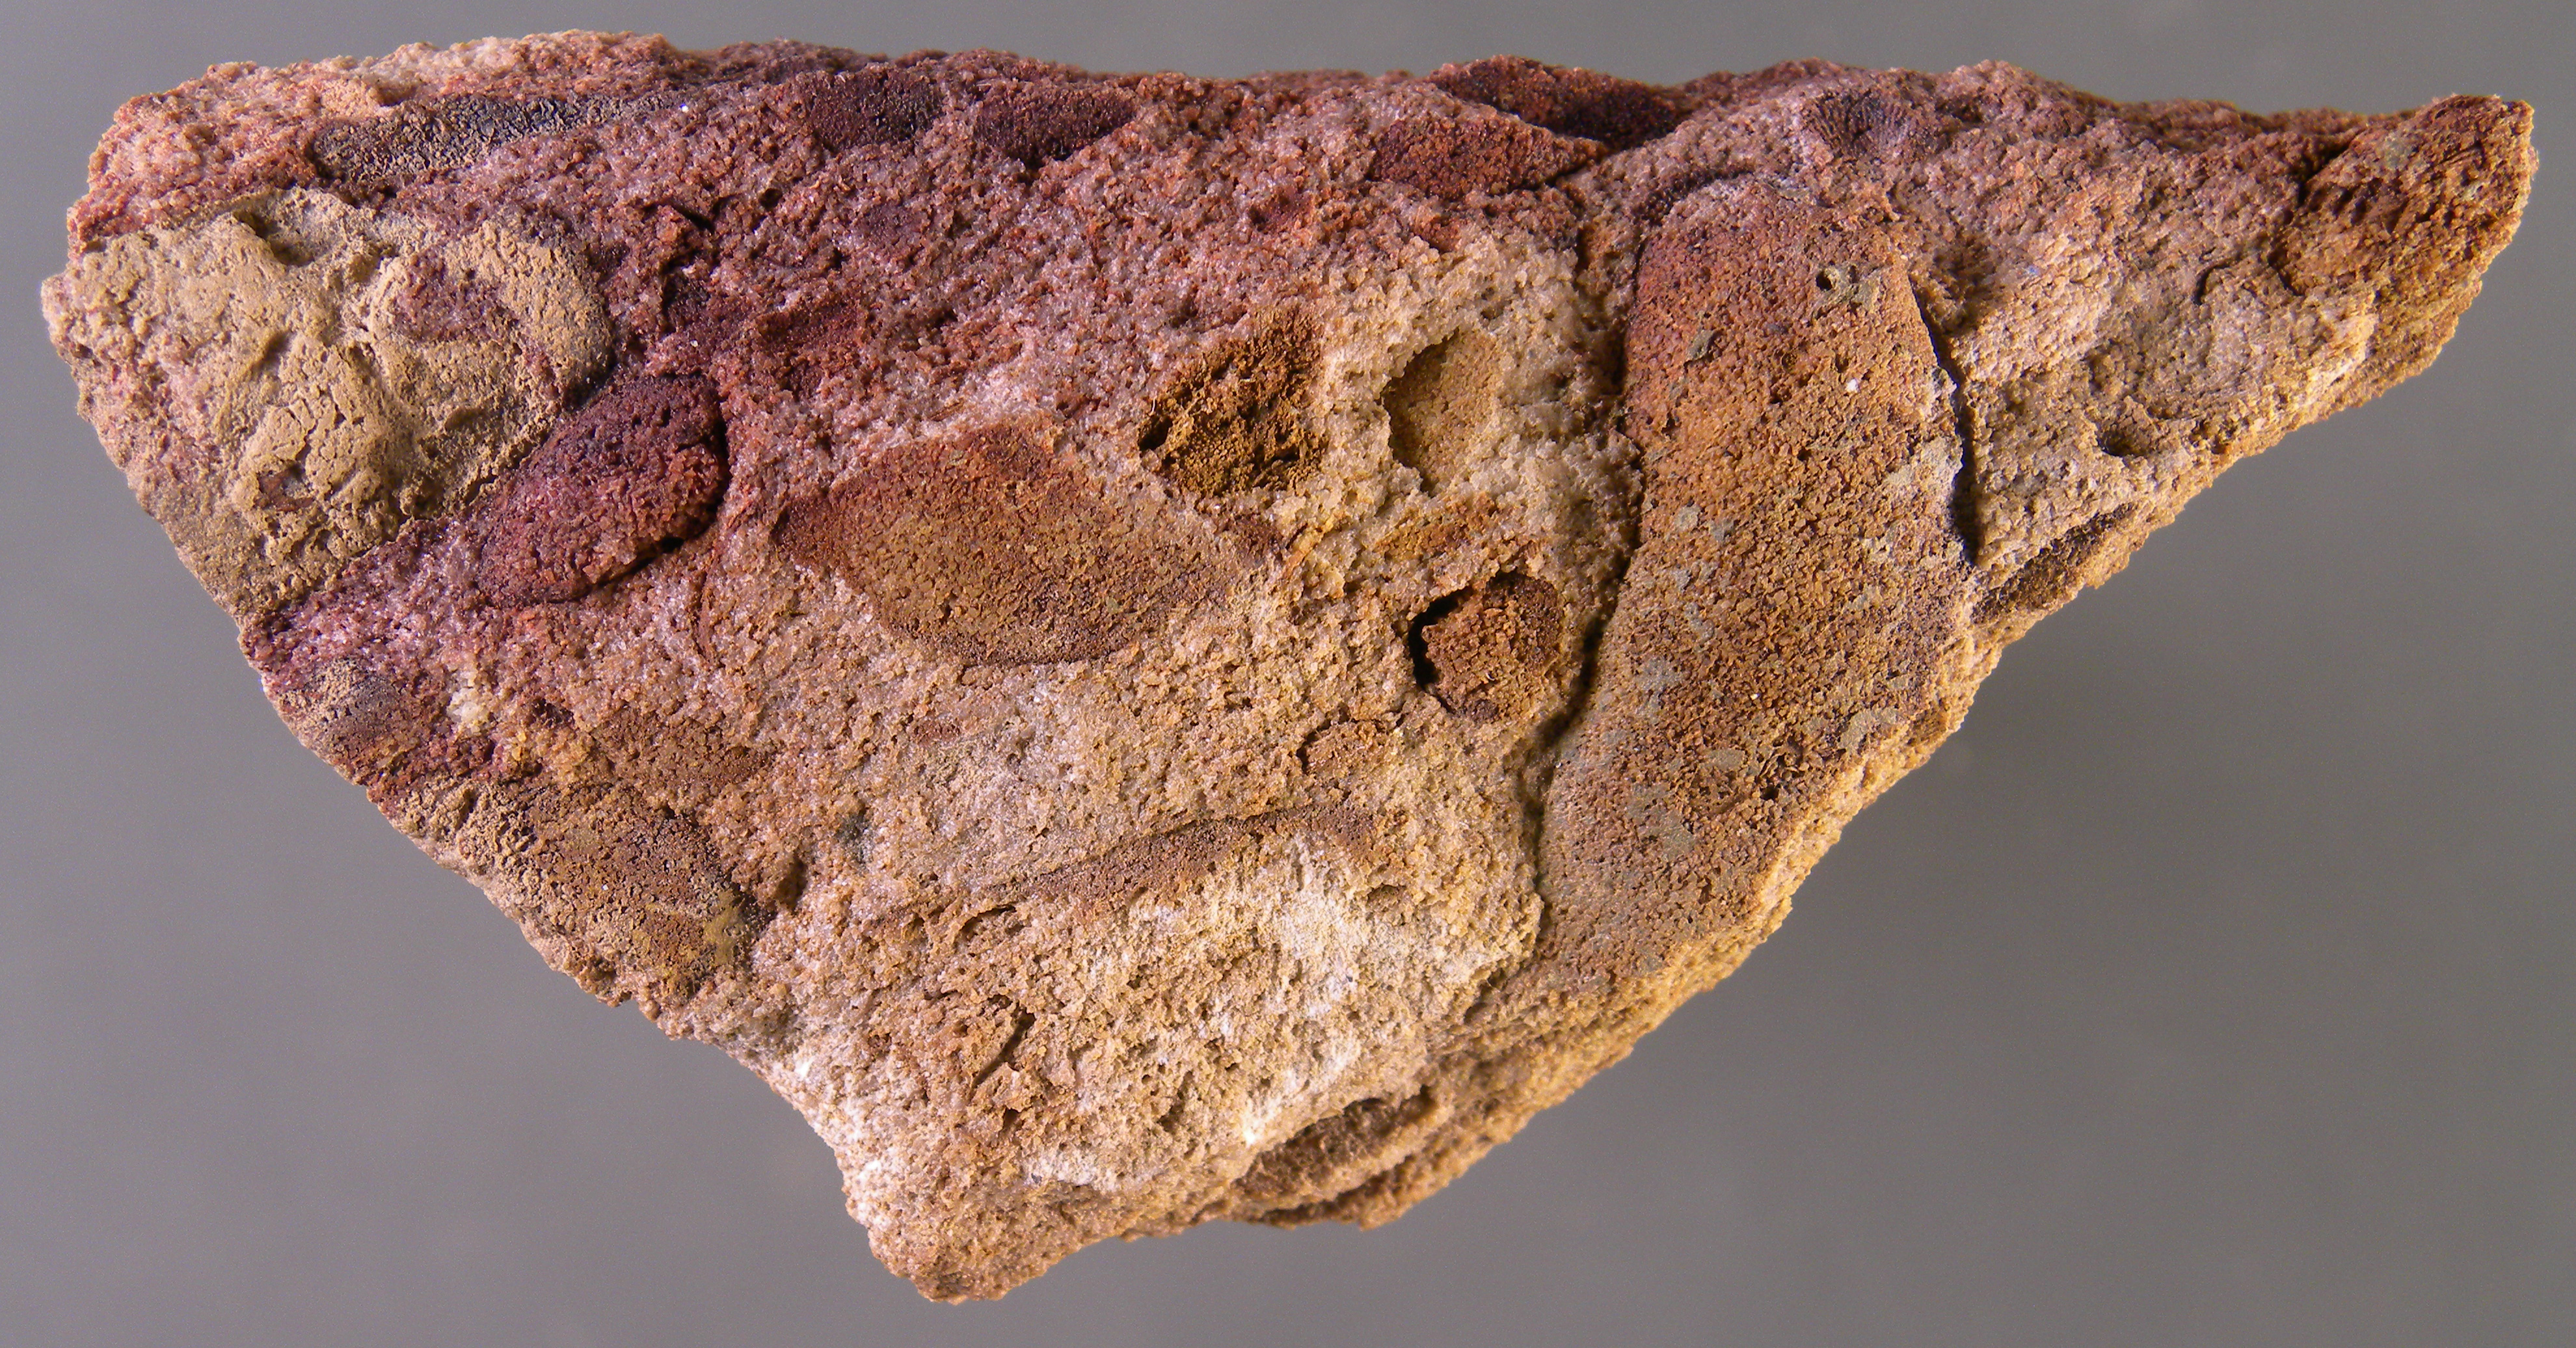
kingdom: Animalia
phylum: Mollusca
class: Bivalvia
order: Modiomorphida
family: Modiomorphidae
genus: Modiomorpha
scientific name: Modiomorpha
